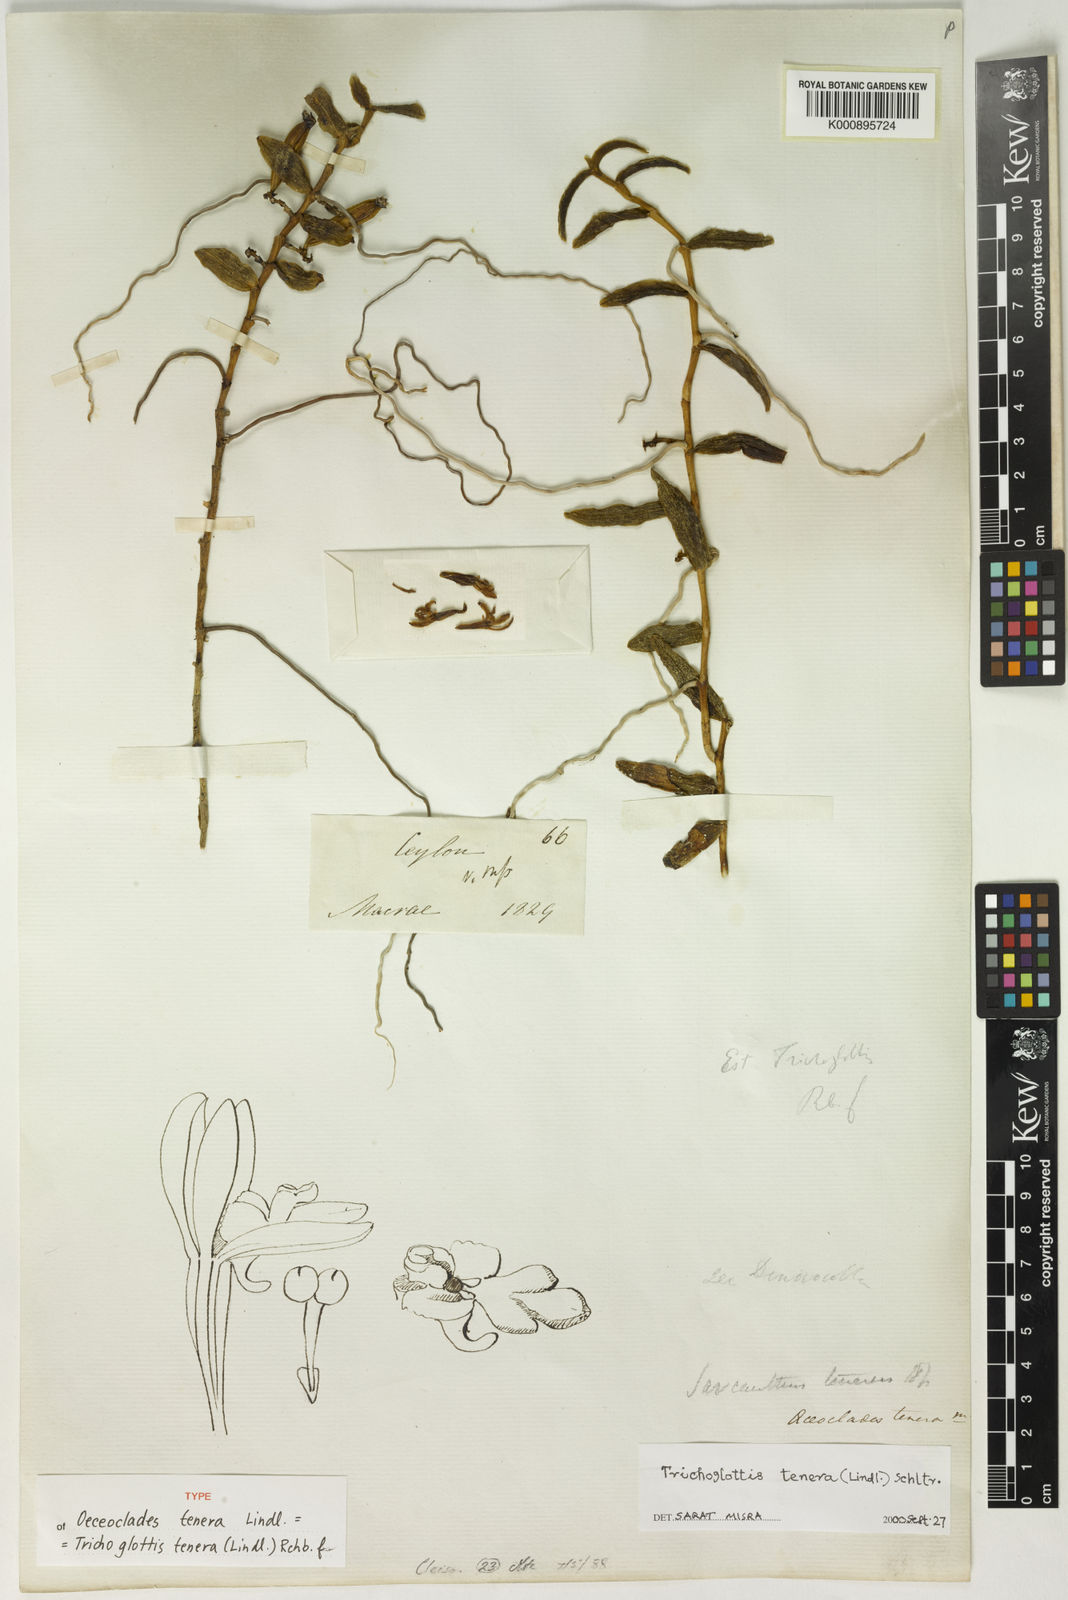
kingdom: Plantae
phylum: Tracheophyta
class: Liliopsida
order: Asparagales
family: Orchidaceae
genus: Trichoglottis
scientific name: Trichoglottis
